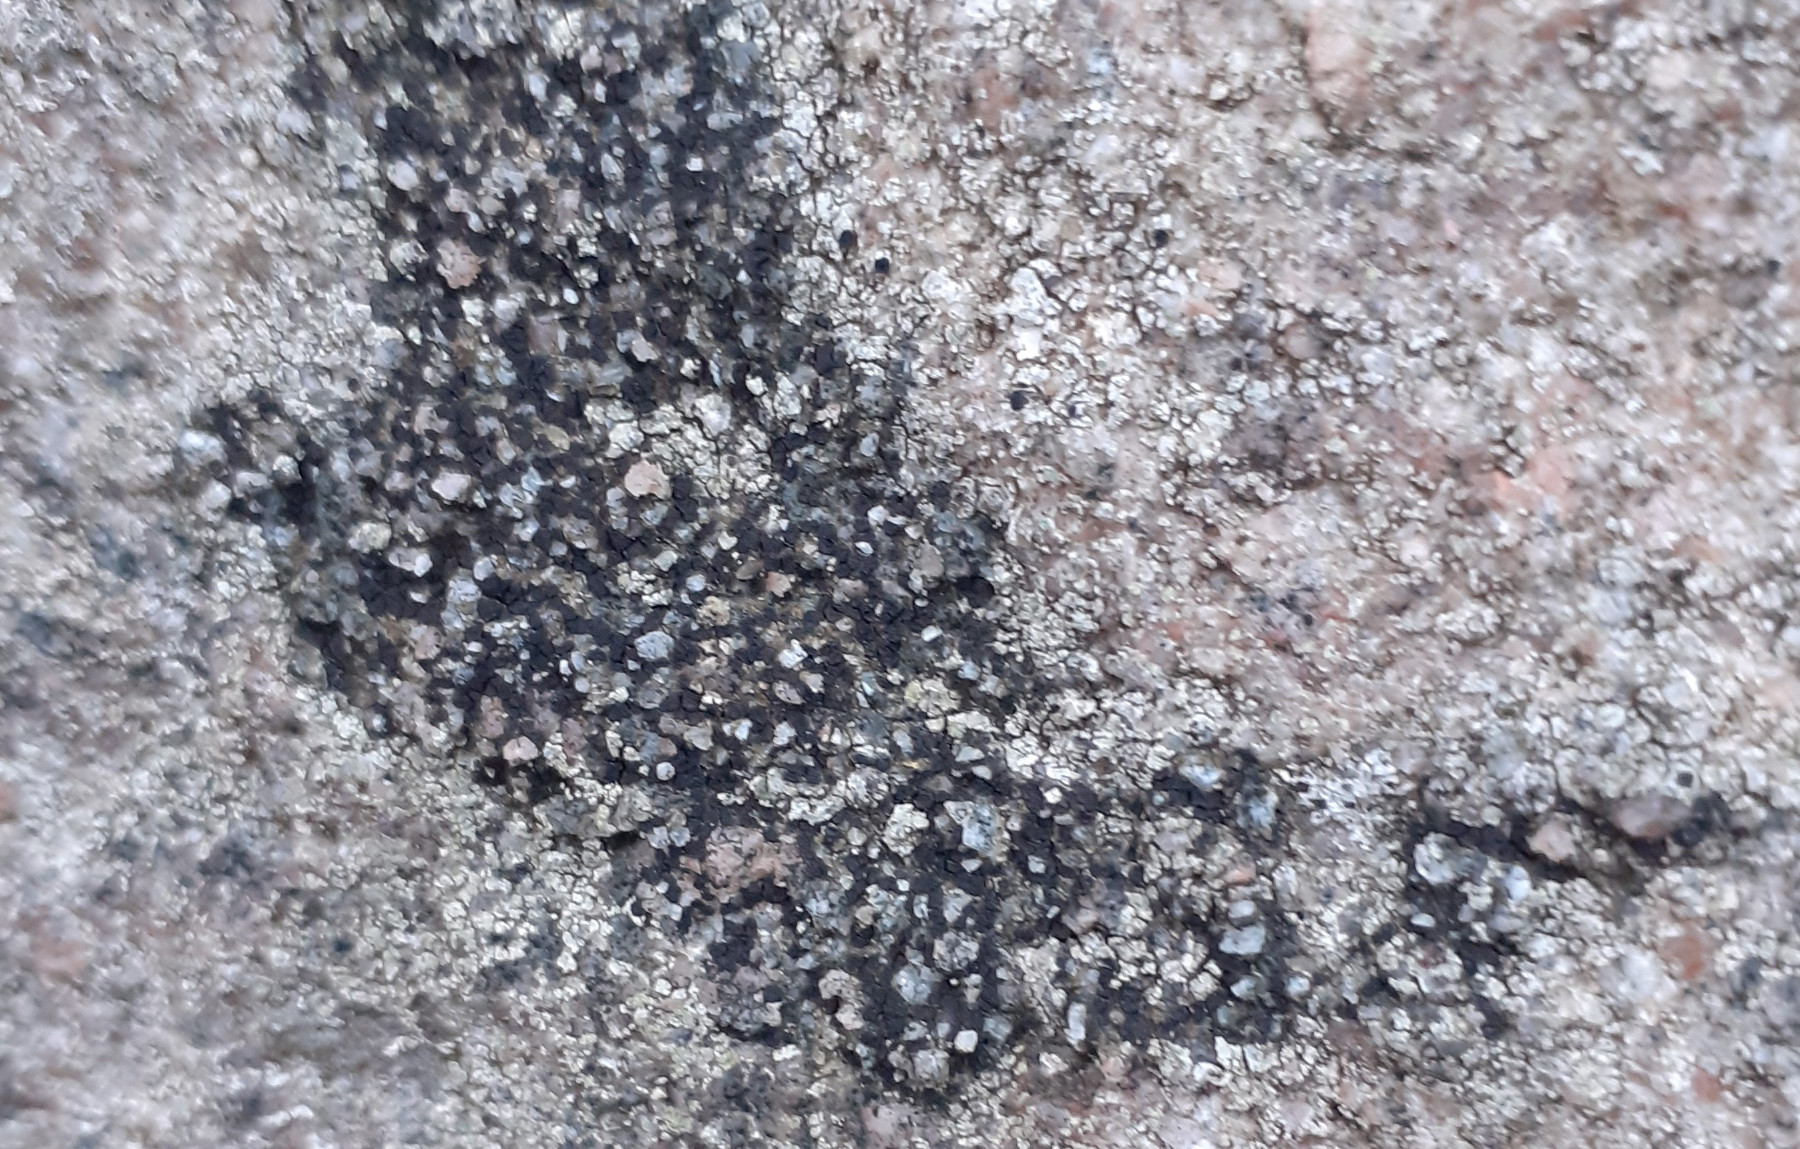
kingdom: Fungi
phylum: Ascomycota
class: Lecanoromycetes
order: Acarosporales
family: Acarosporaceae
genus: Acarospora
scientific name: Acarospora privigna
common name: sort foldekantlav
